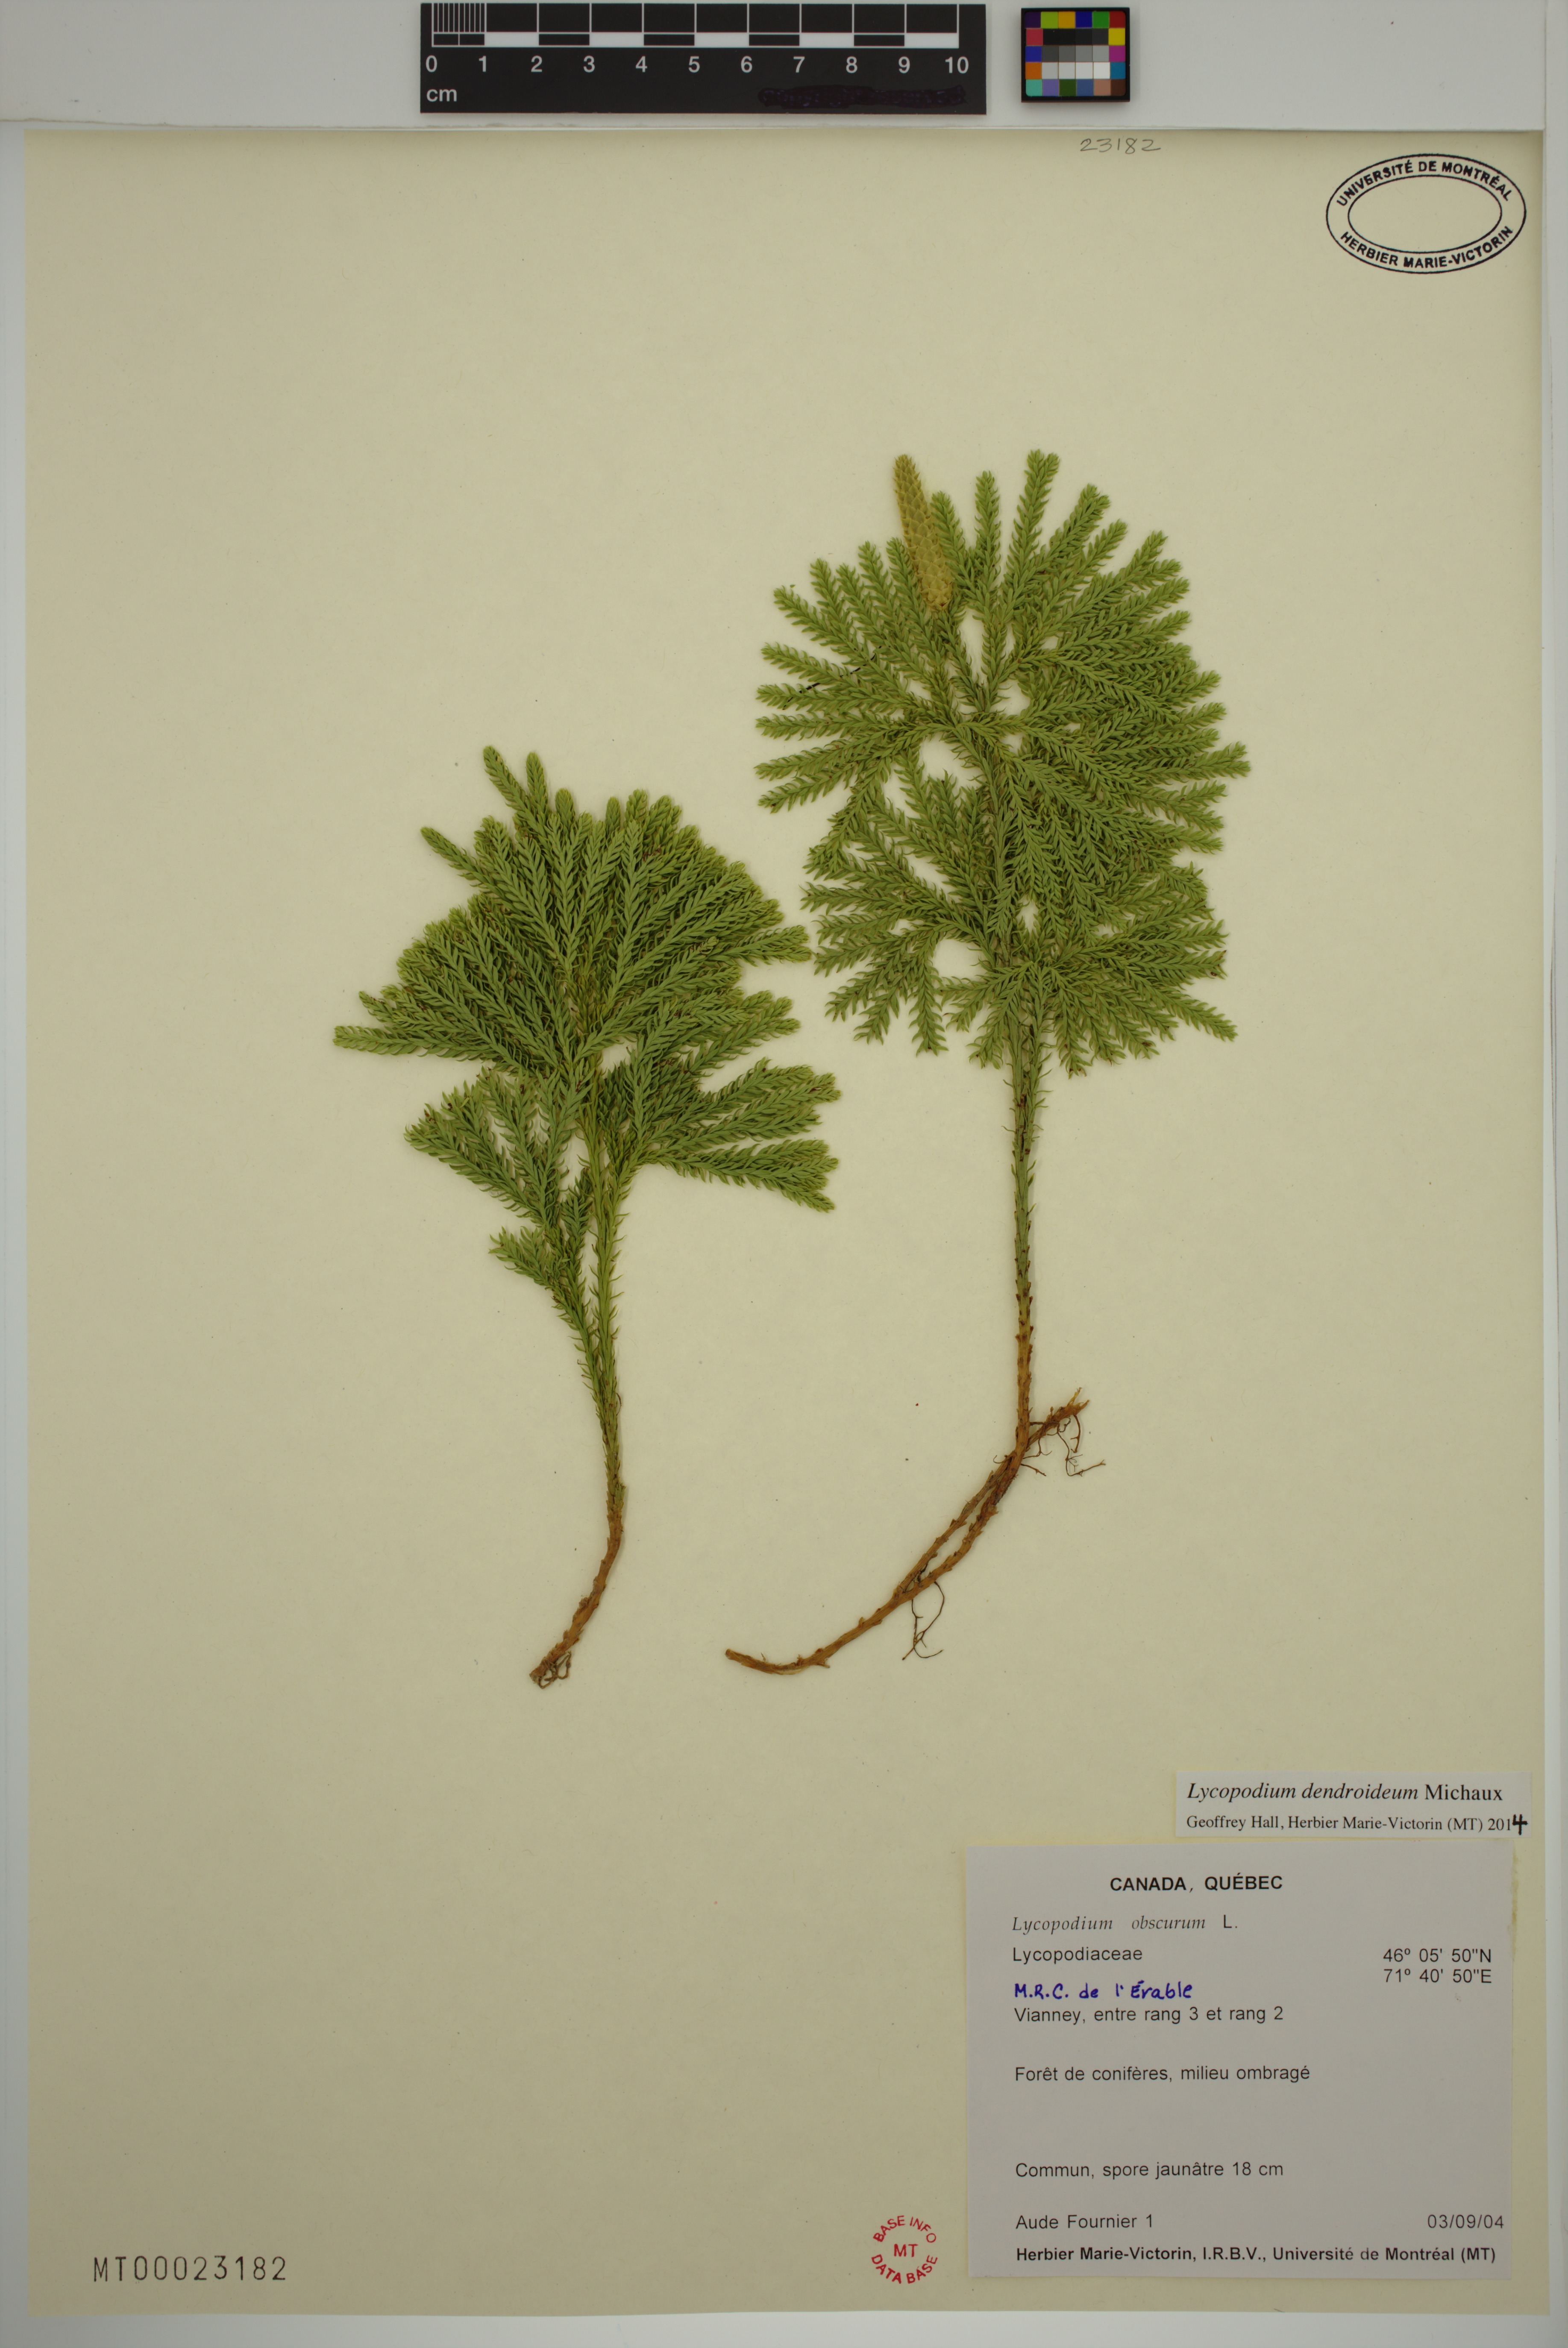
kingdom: Plantae
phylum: Tracheophyta
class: Lycopodiopsida
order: Lycopodiales
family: Lycopodiaceae
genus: Dendrolycopodium
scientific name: Dendrolycopodium dendroideum
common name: Northern tree-clubmoss
